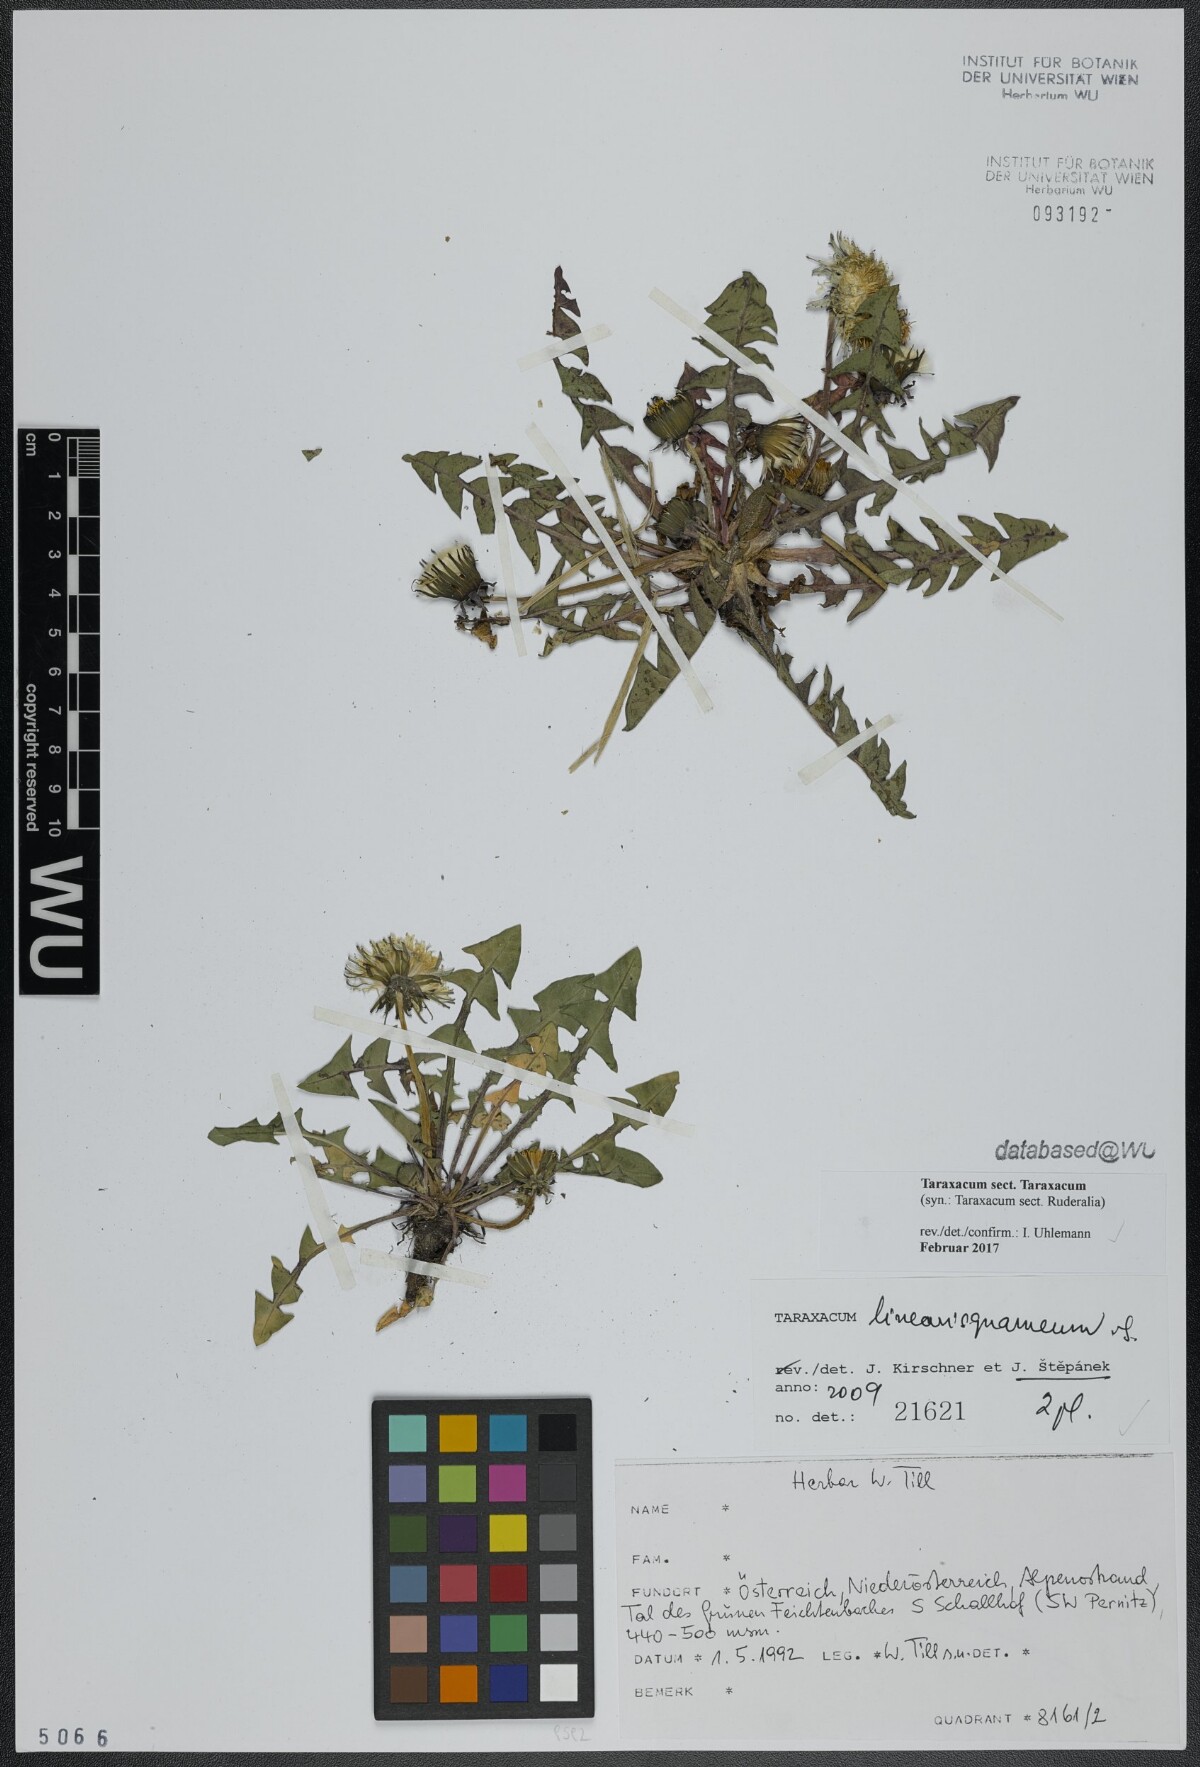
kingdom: Plantae
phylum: Tracheophyta
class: Magnoliopsida
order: Asterales
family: Asteraceae
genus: Taraxacum
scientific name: Taraxacum
